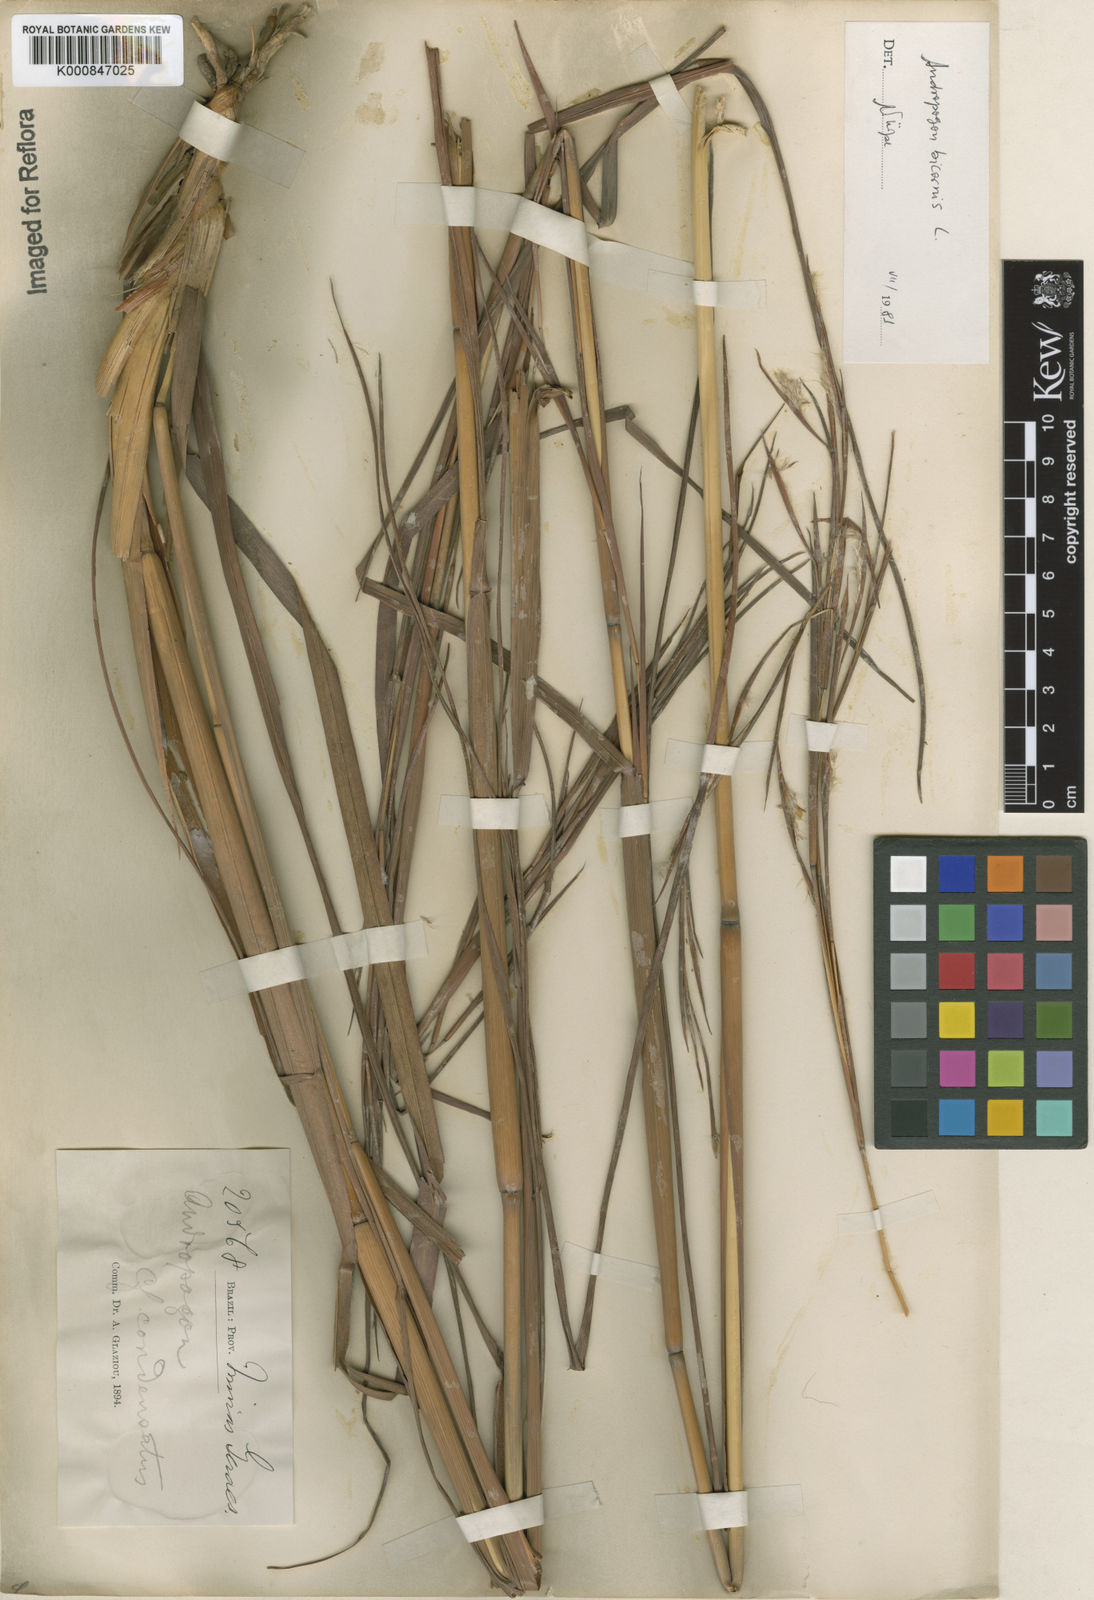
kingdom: Plantae
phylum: Tracheophyta
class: Liliopsida
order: Poales
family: Poaceae
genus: Andropogon
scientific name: Andropogon
